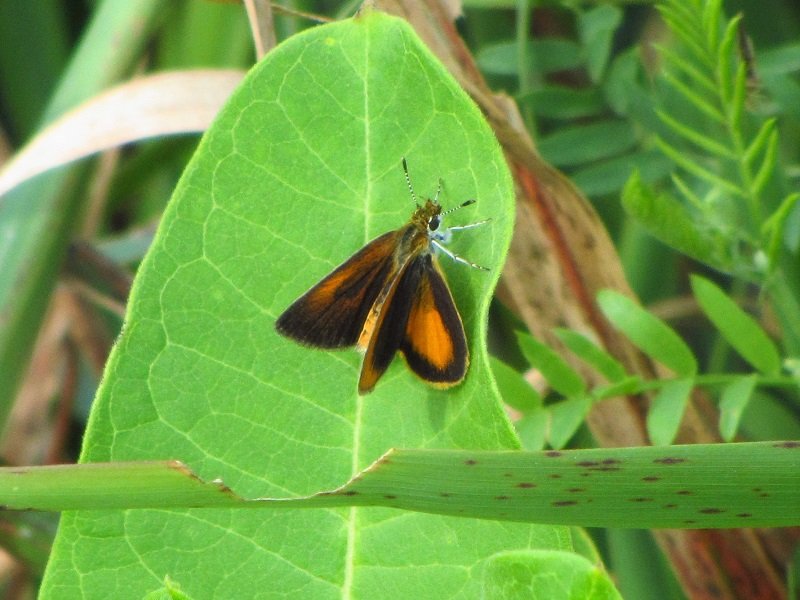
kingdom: Animalia
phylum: Arthropoda
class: Insecta
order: Lepidoptera
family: Hesperiidae
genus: Ancyloxypha
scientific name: Ancyloxypha numitor
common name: Least Skipper
